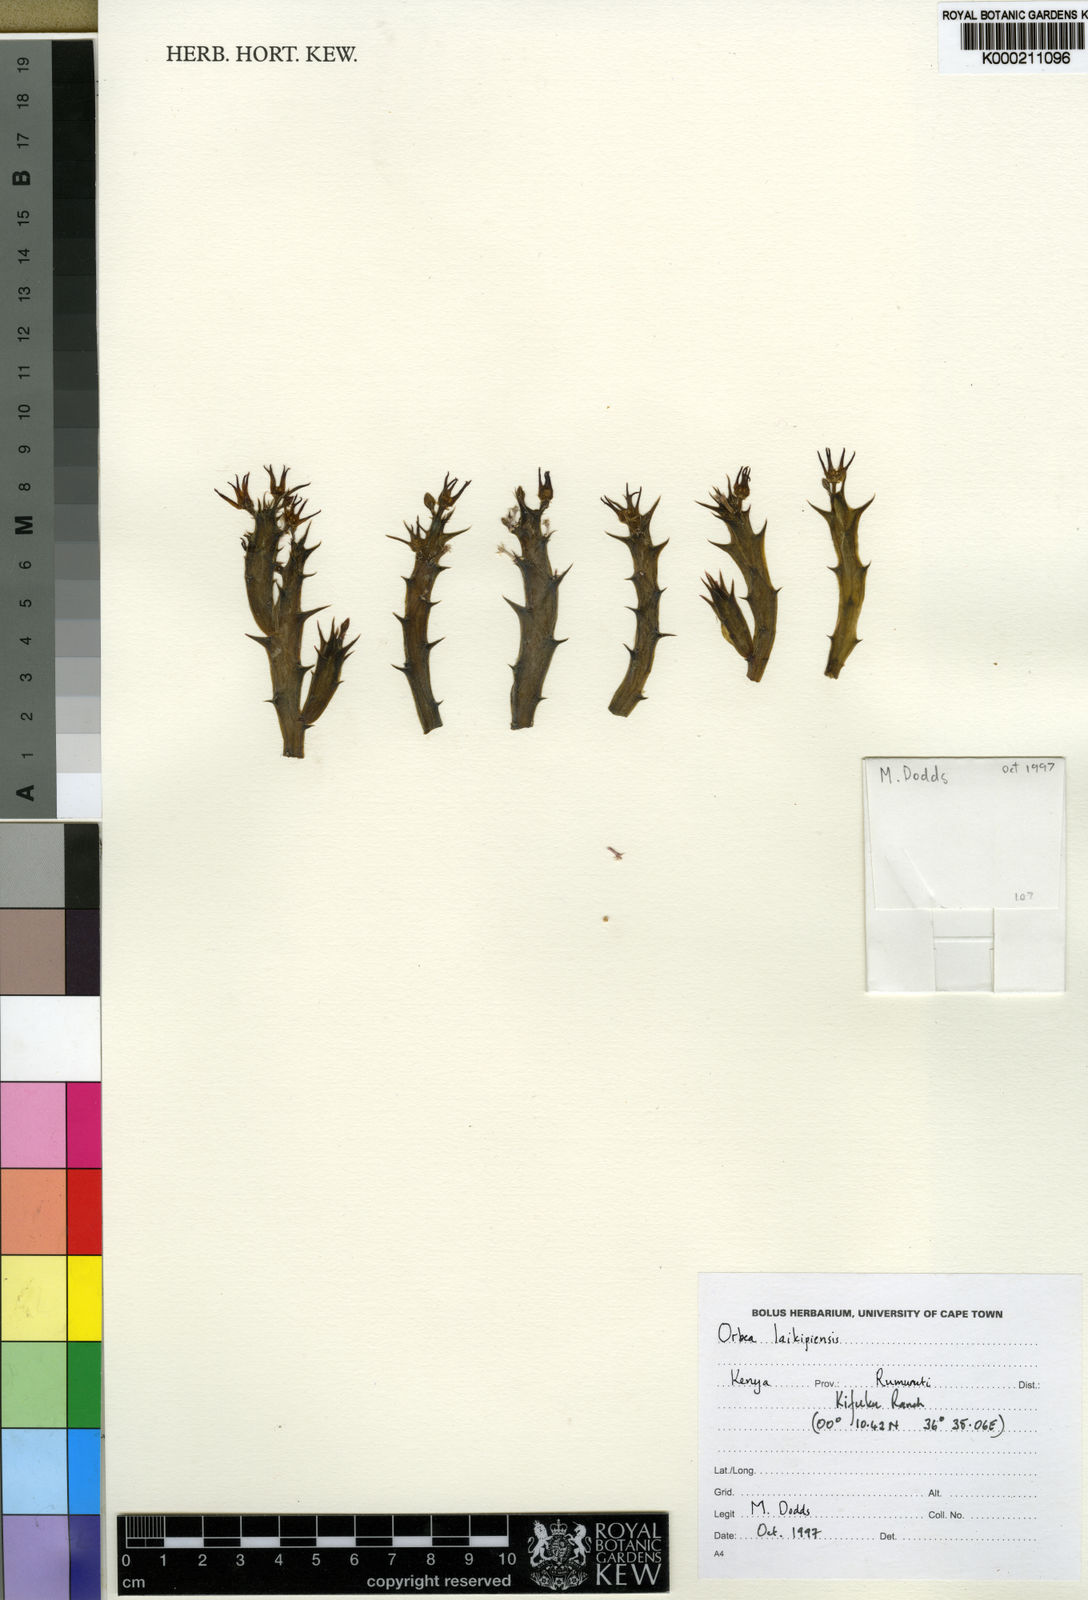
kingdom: Plantae
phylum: Tracheophyta
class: Magnoliopsida
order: Gentianales
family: Apocynaceae
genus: Ceropegia
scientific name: Ceropegia laikipika
